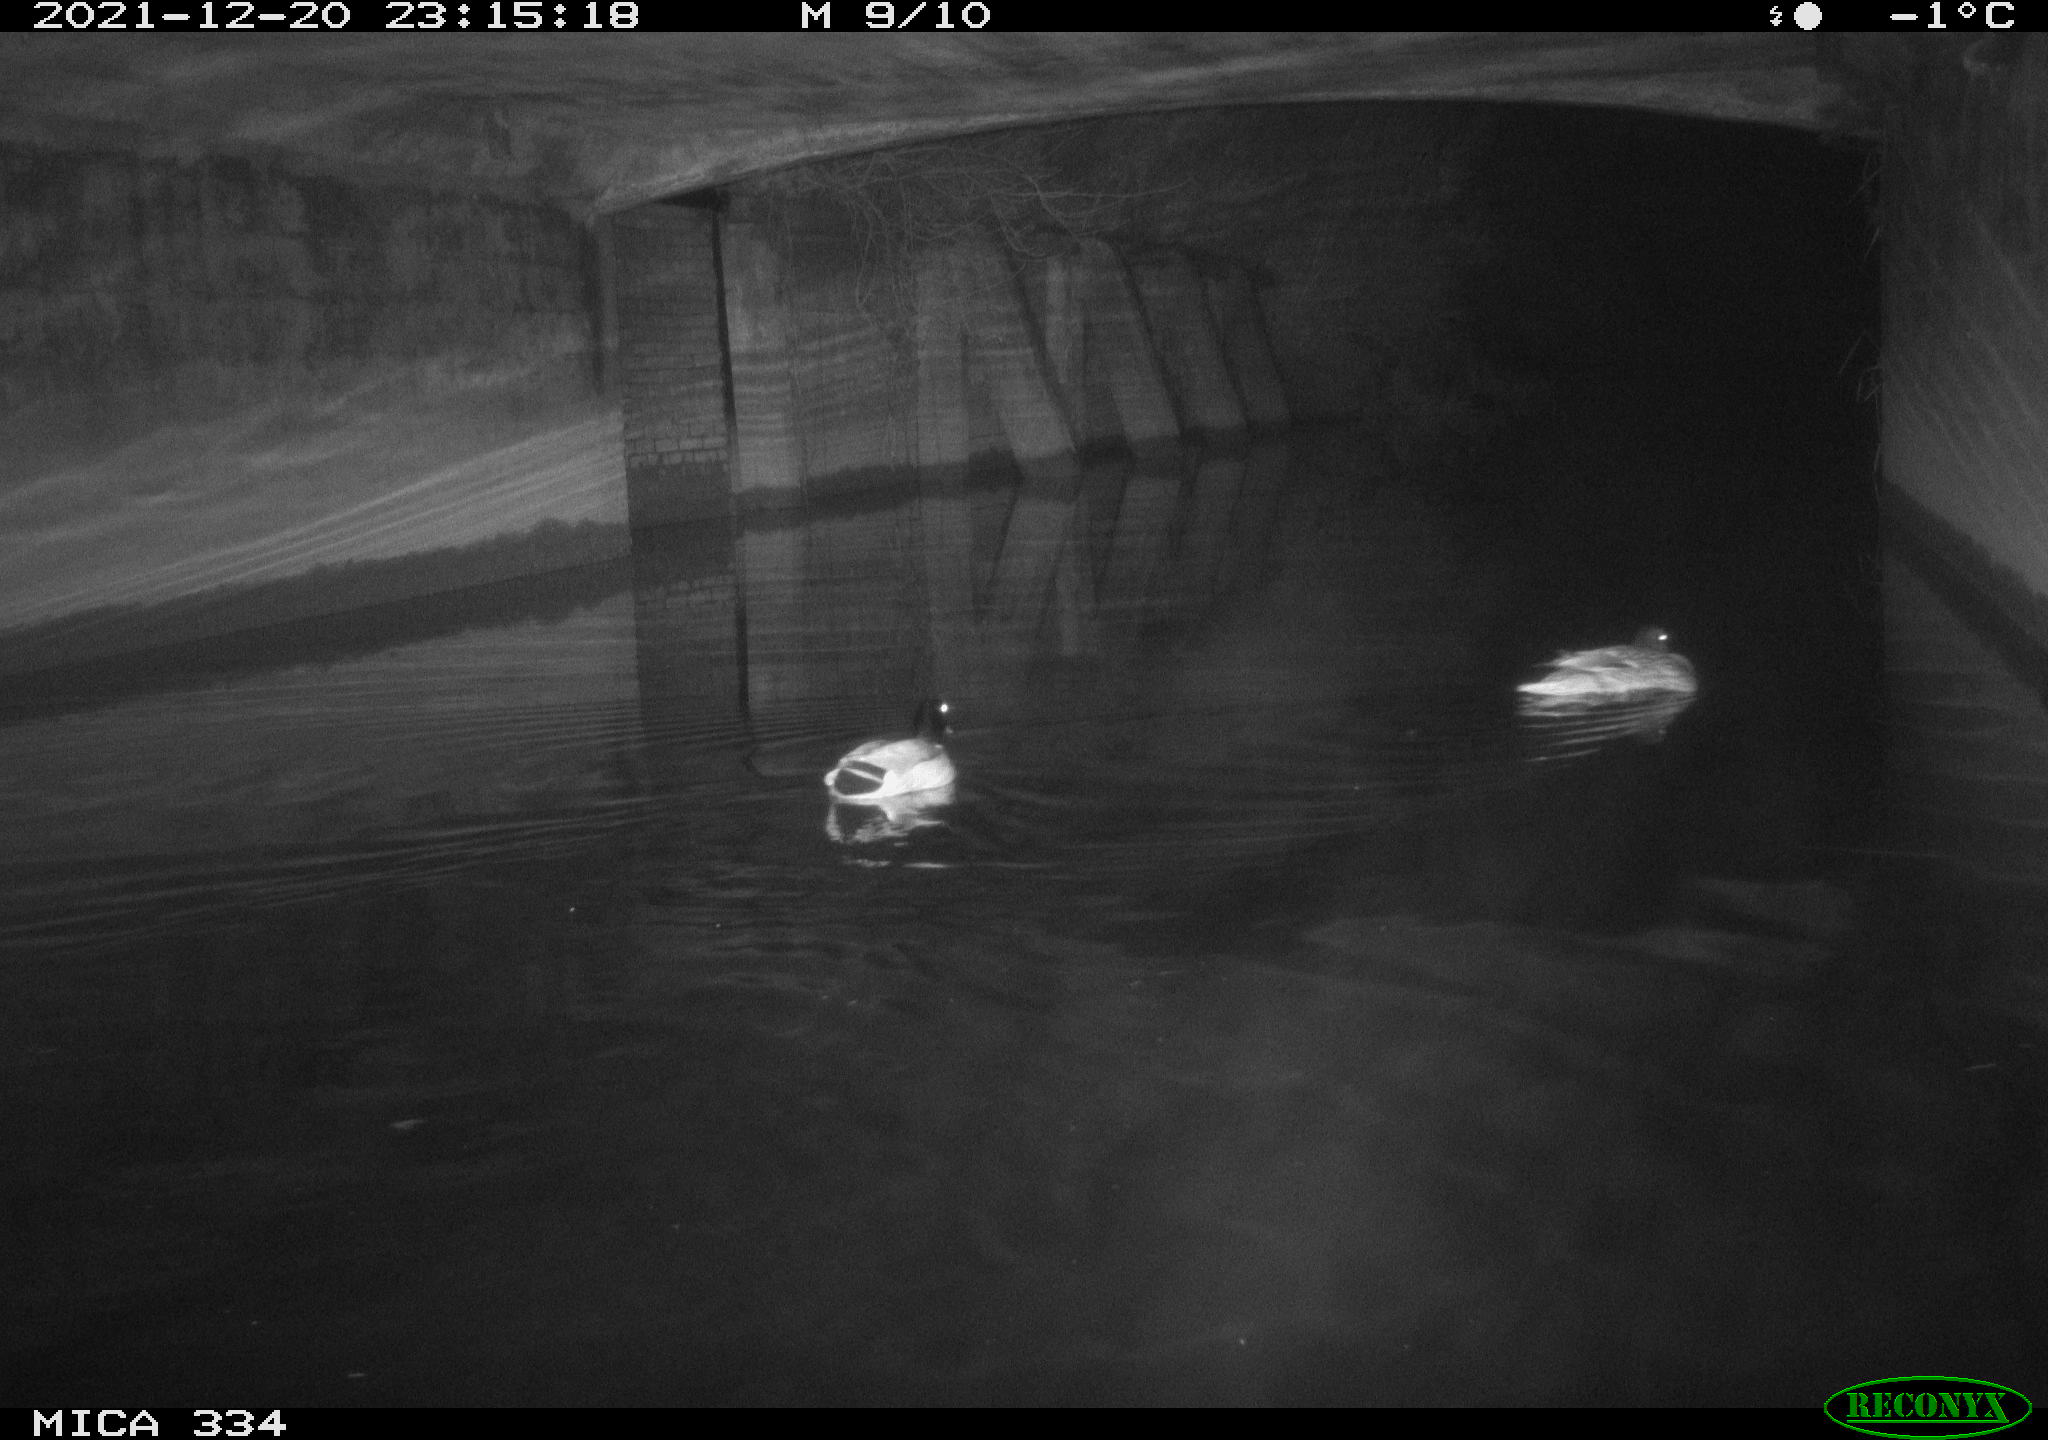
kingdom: Animalia
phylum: Chordata
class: Aves
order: Anseriformes
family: Anatidae
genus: Anas
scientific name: Anas platyrhynchos
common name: Mallard
